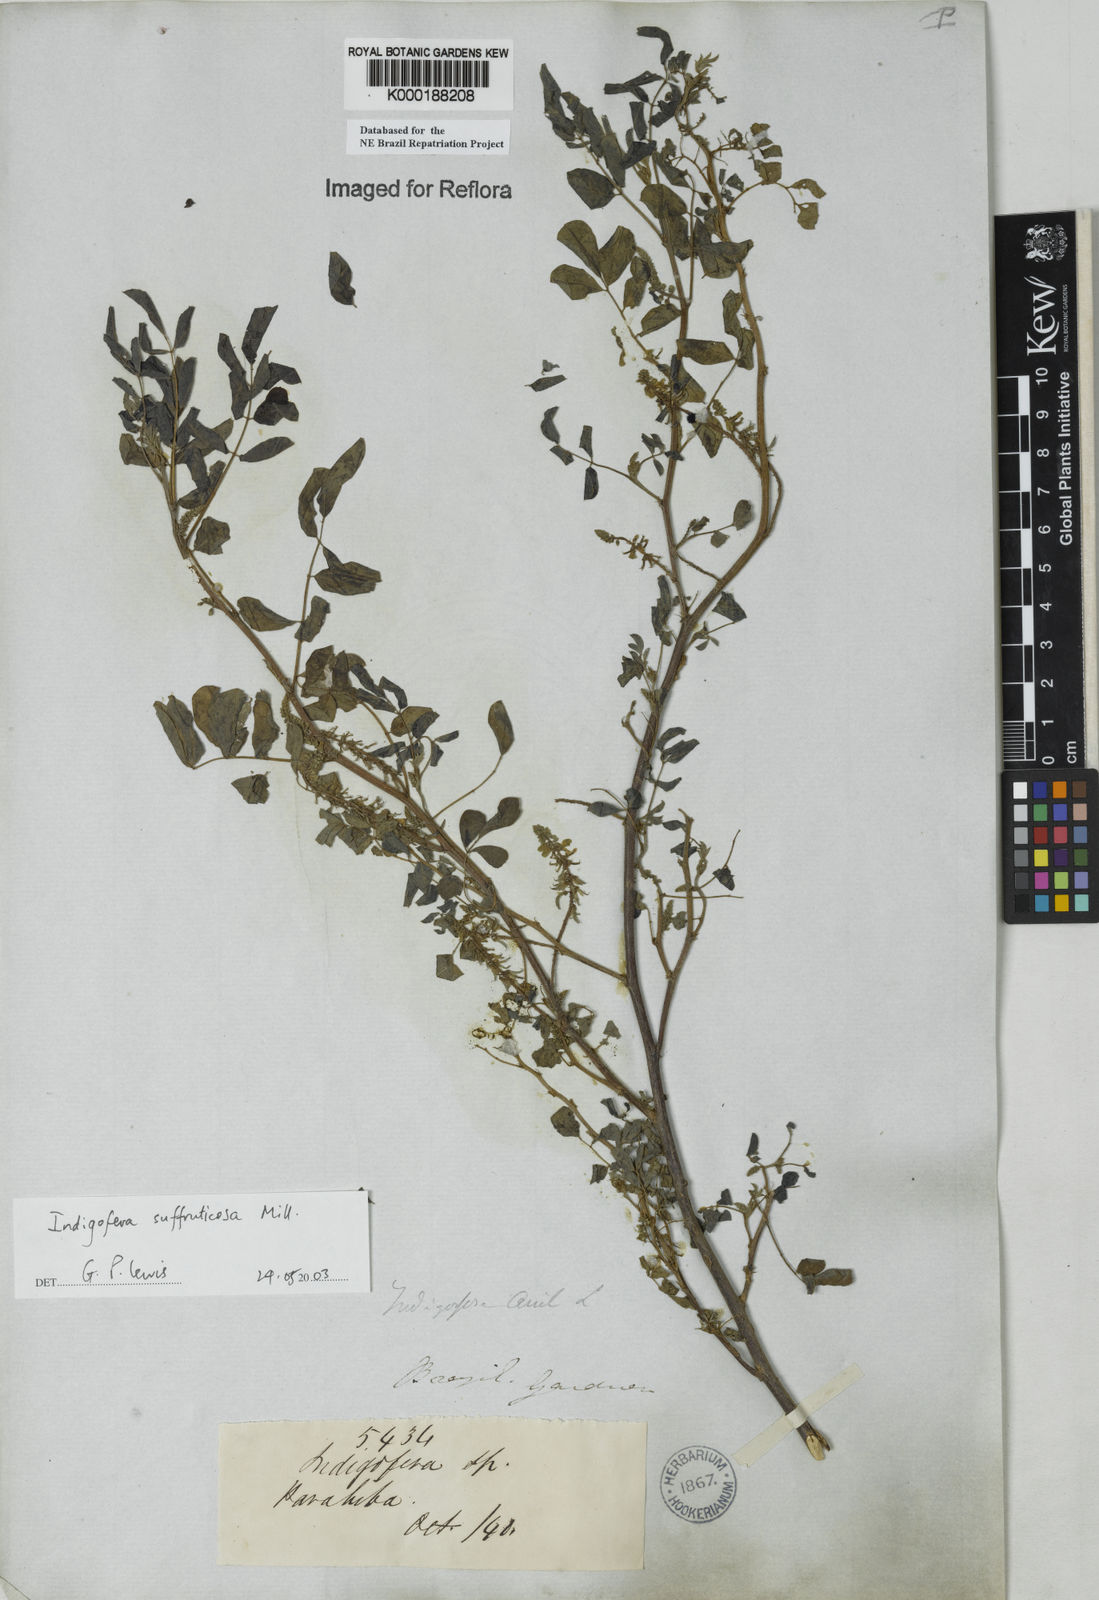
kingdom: Plantae
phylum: Tracheophyta
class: Magnoliopsida
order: Fabales
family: Fabaceae
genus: Indigofera
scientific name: Indigofera suffruticosa
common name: Anil de pasto
